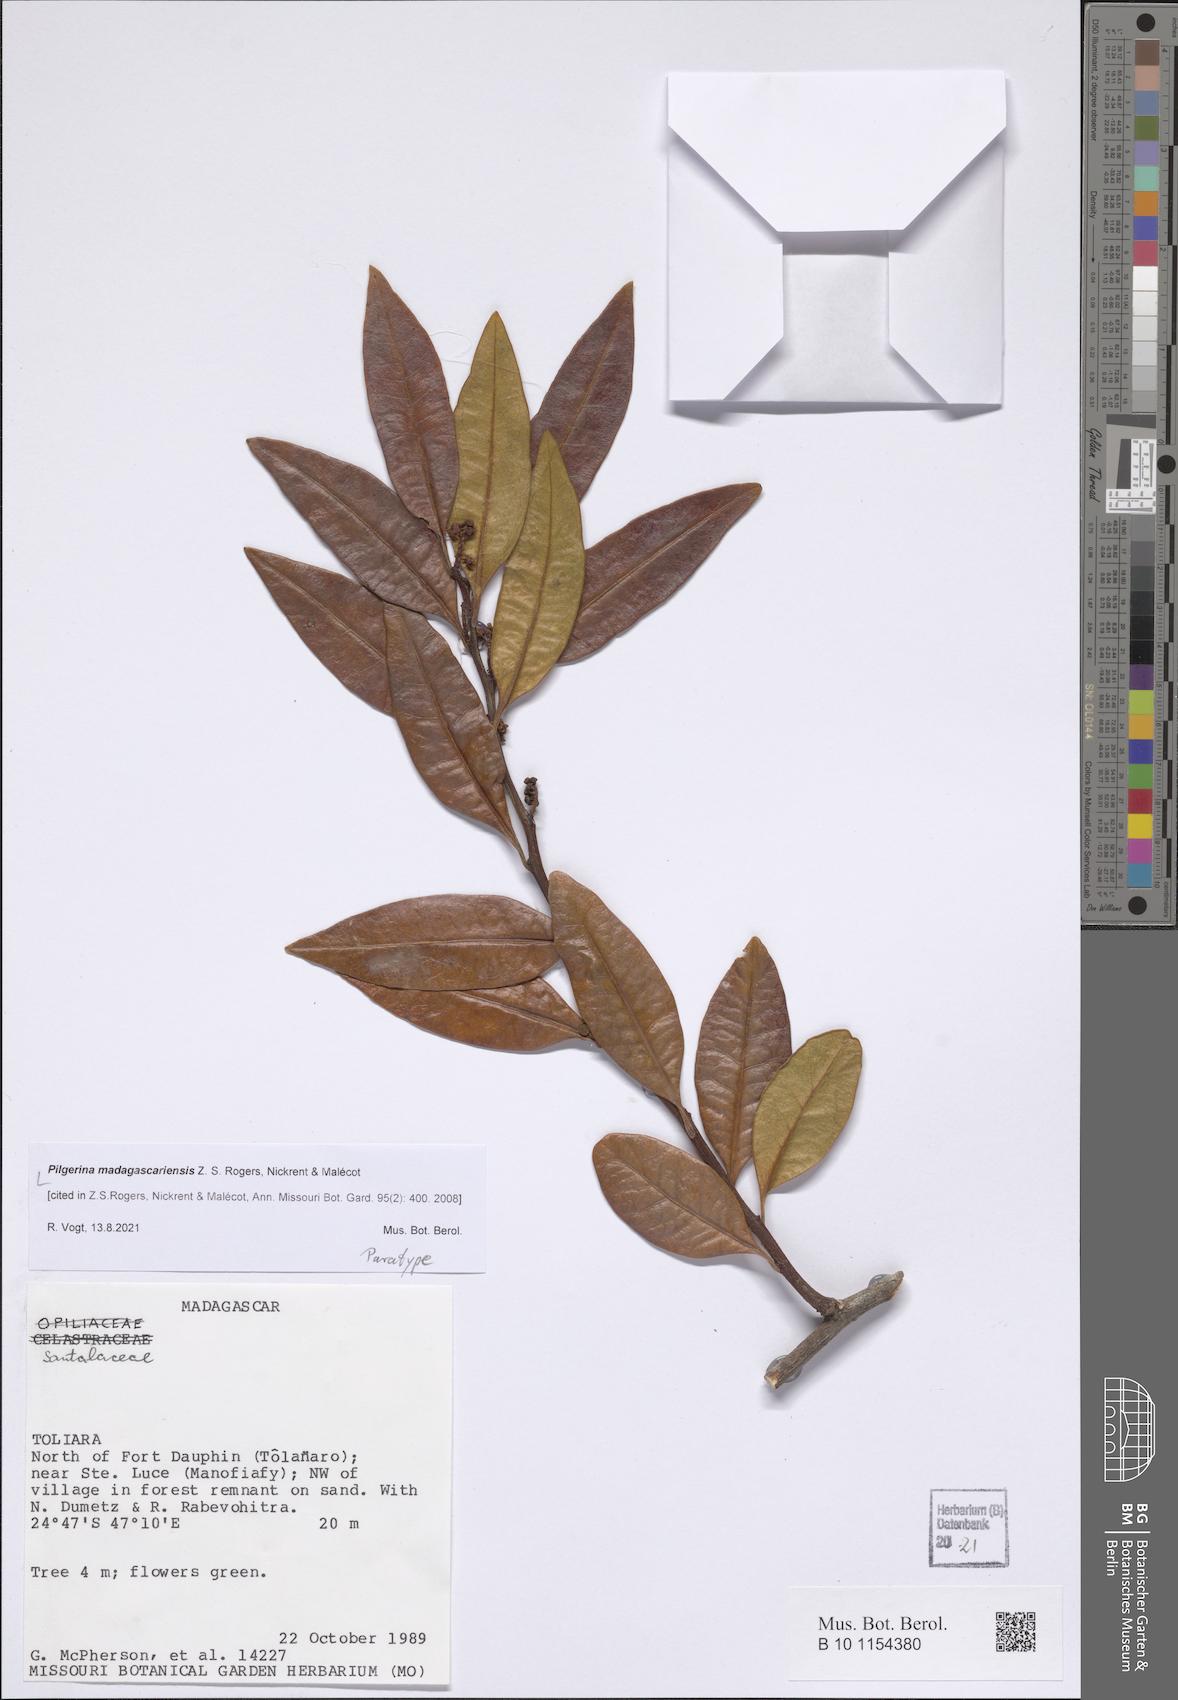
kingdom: Plantae
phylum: Tracheophyta
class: Magnoliopsida
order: Santalales
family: Cervantesiaceae
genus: Pilgerina
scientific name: Pilgerina madagascariensis
